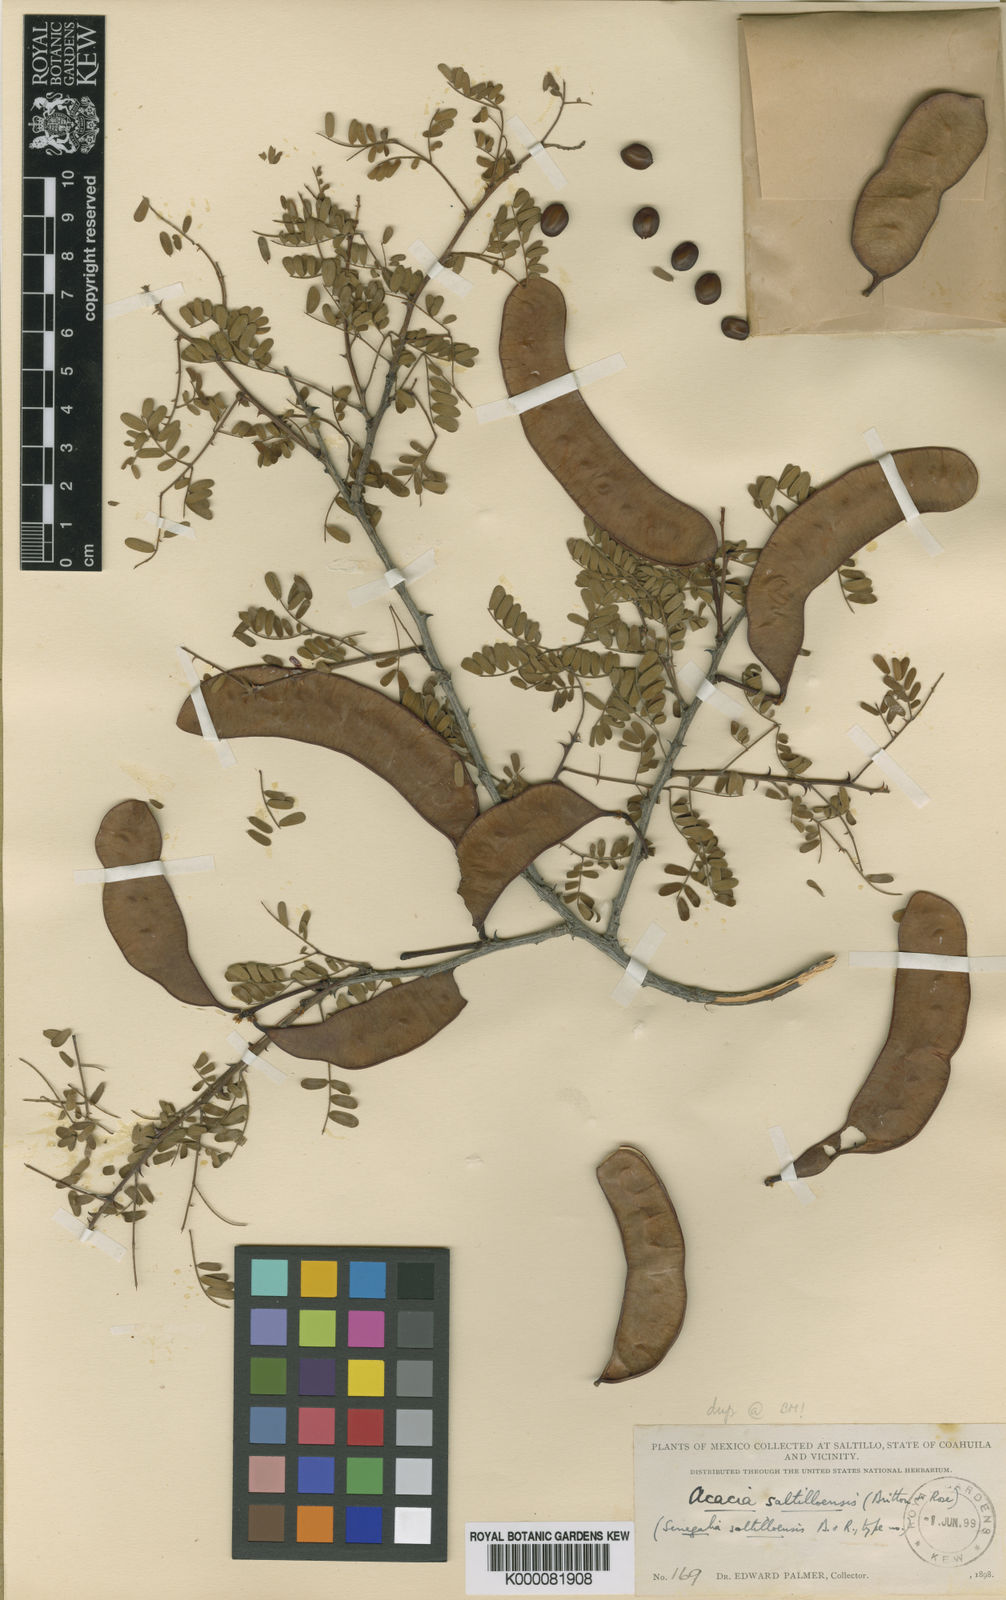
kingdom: Plantae
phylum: Tracheophyta
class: Magnoliopsida
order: Fabales
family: Fabaceae
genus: Senegalia
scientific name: Senegalia roemeriana
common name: Roemer's acacia
